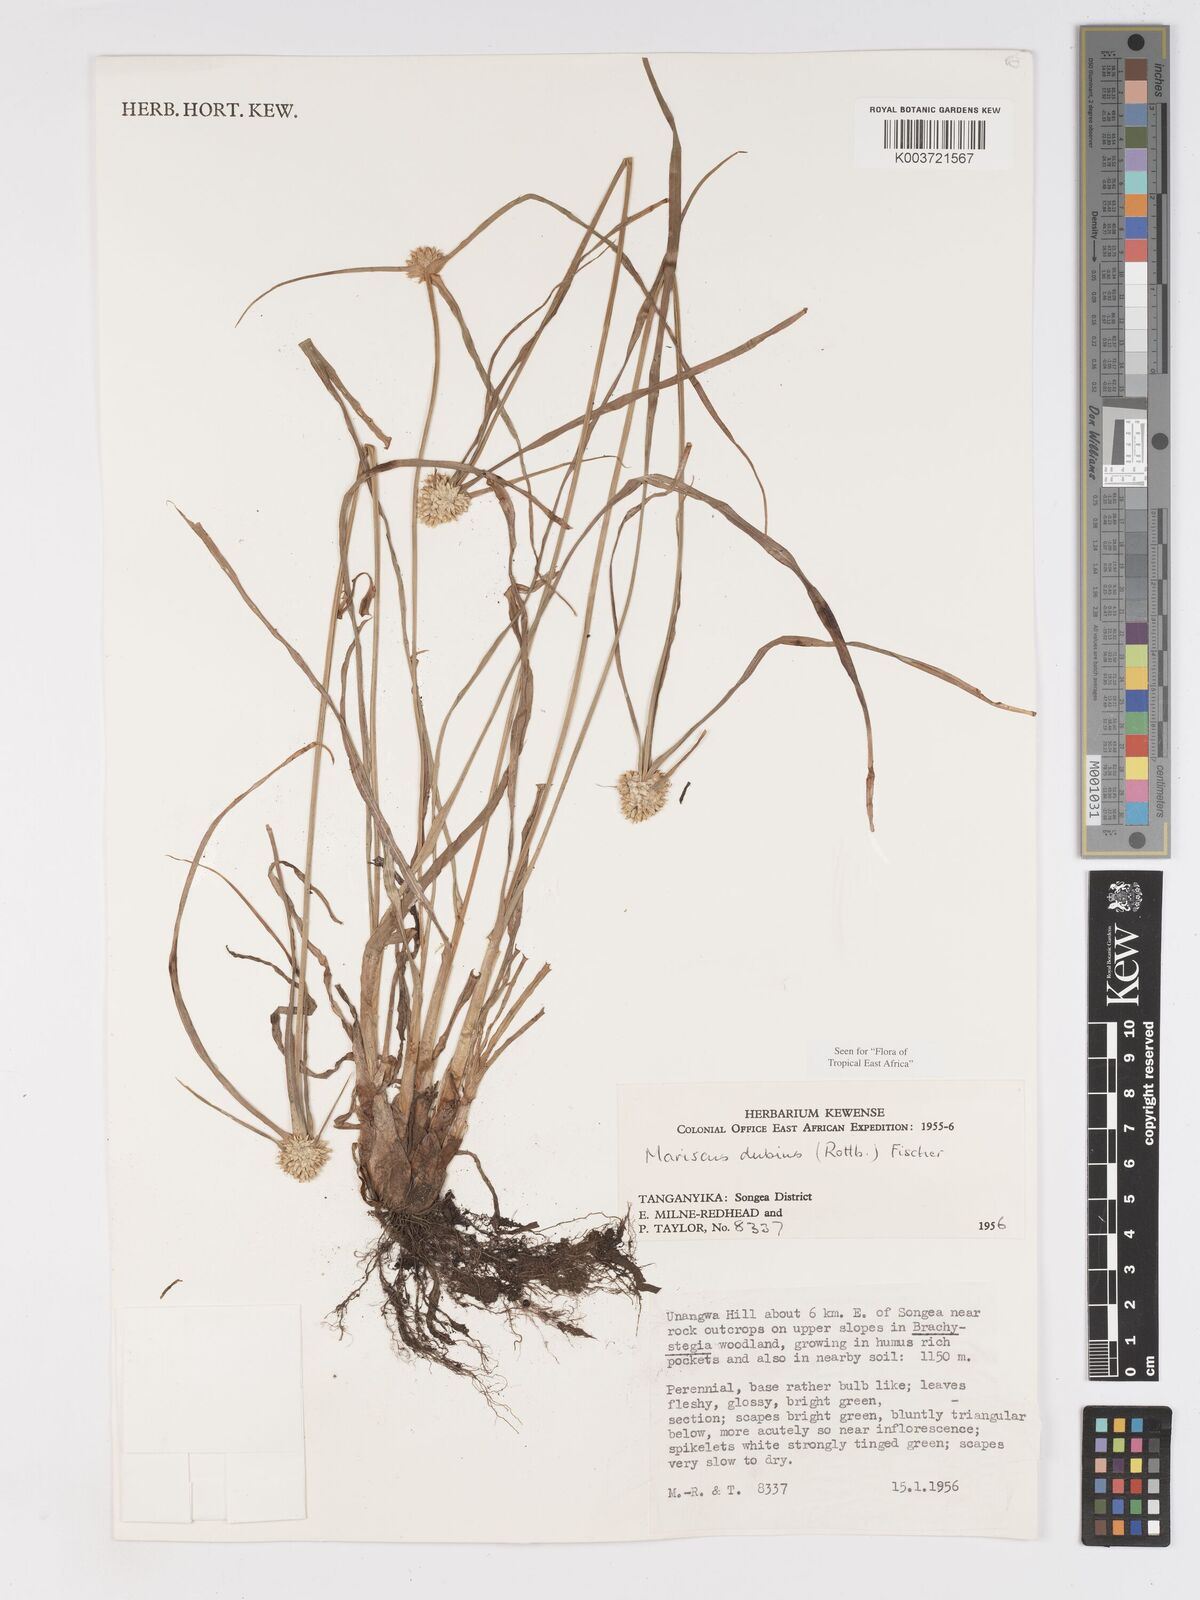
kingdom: Plantae
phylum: Tracheophyta
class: Liliopsida
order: Poales
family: Cyperaceae
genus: Cyperus
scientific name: Cyperus dubius
